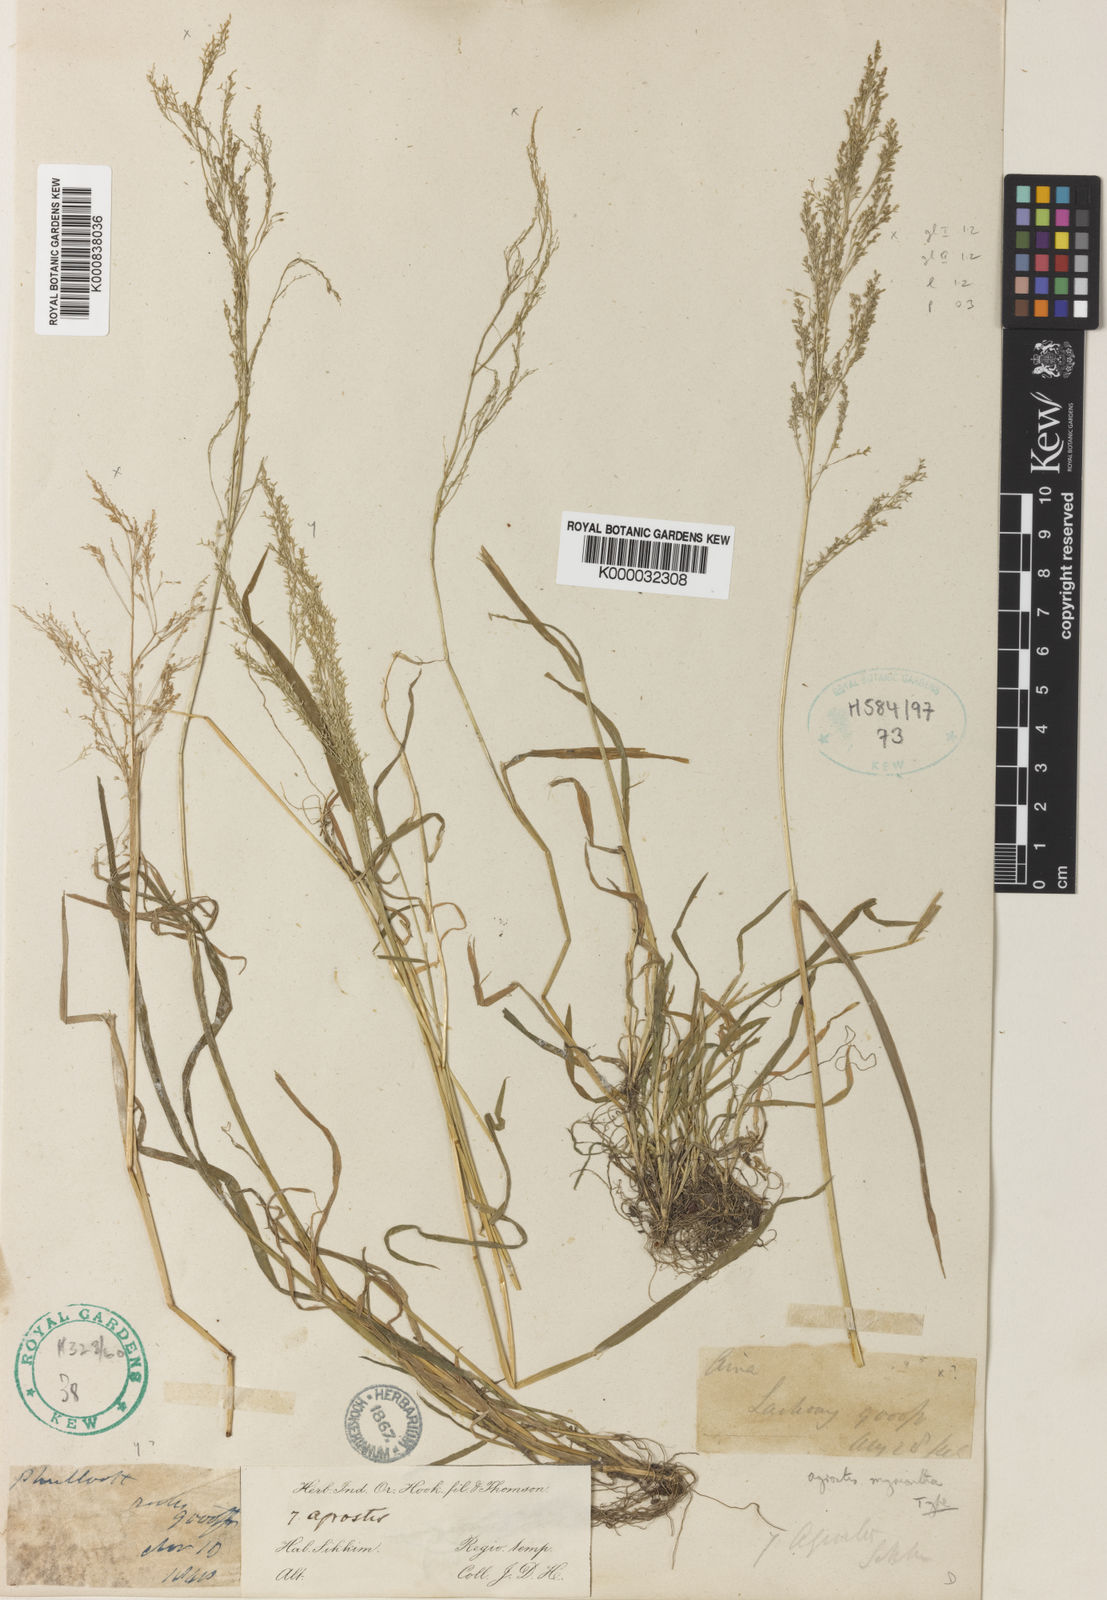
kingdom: Plantae
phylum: Tracheophyta
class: Liliopsida
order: Poales
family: Poaceae
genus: Agrostis
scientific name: Agrostis micrantha
